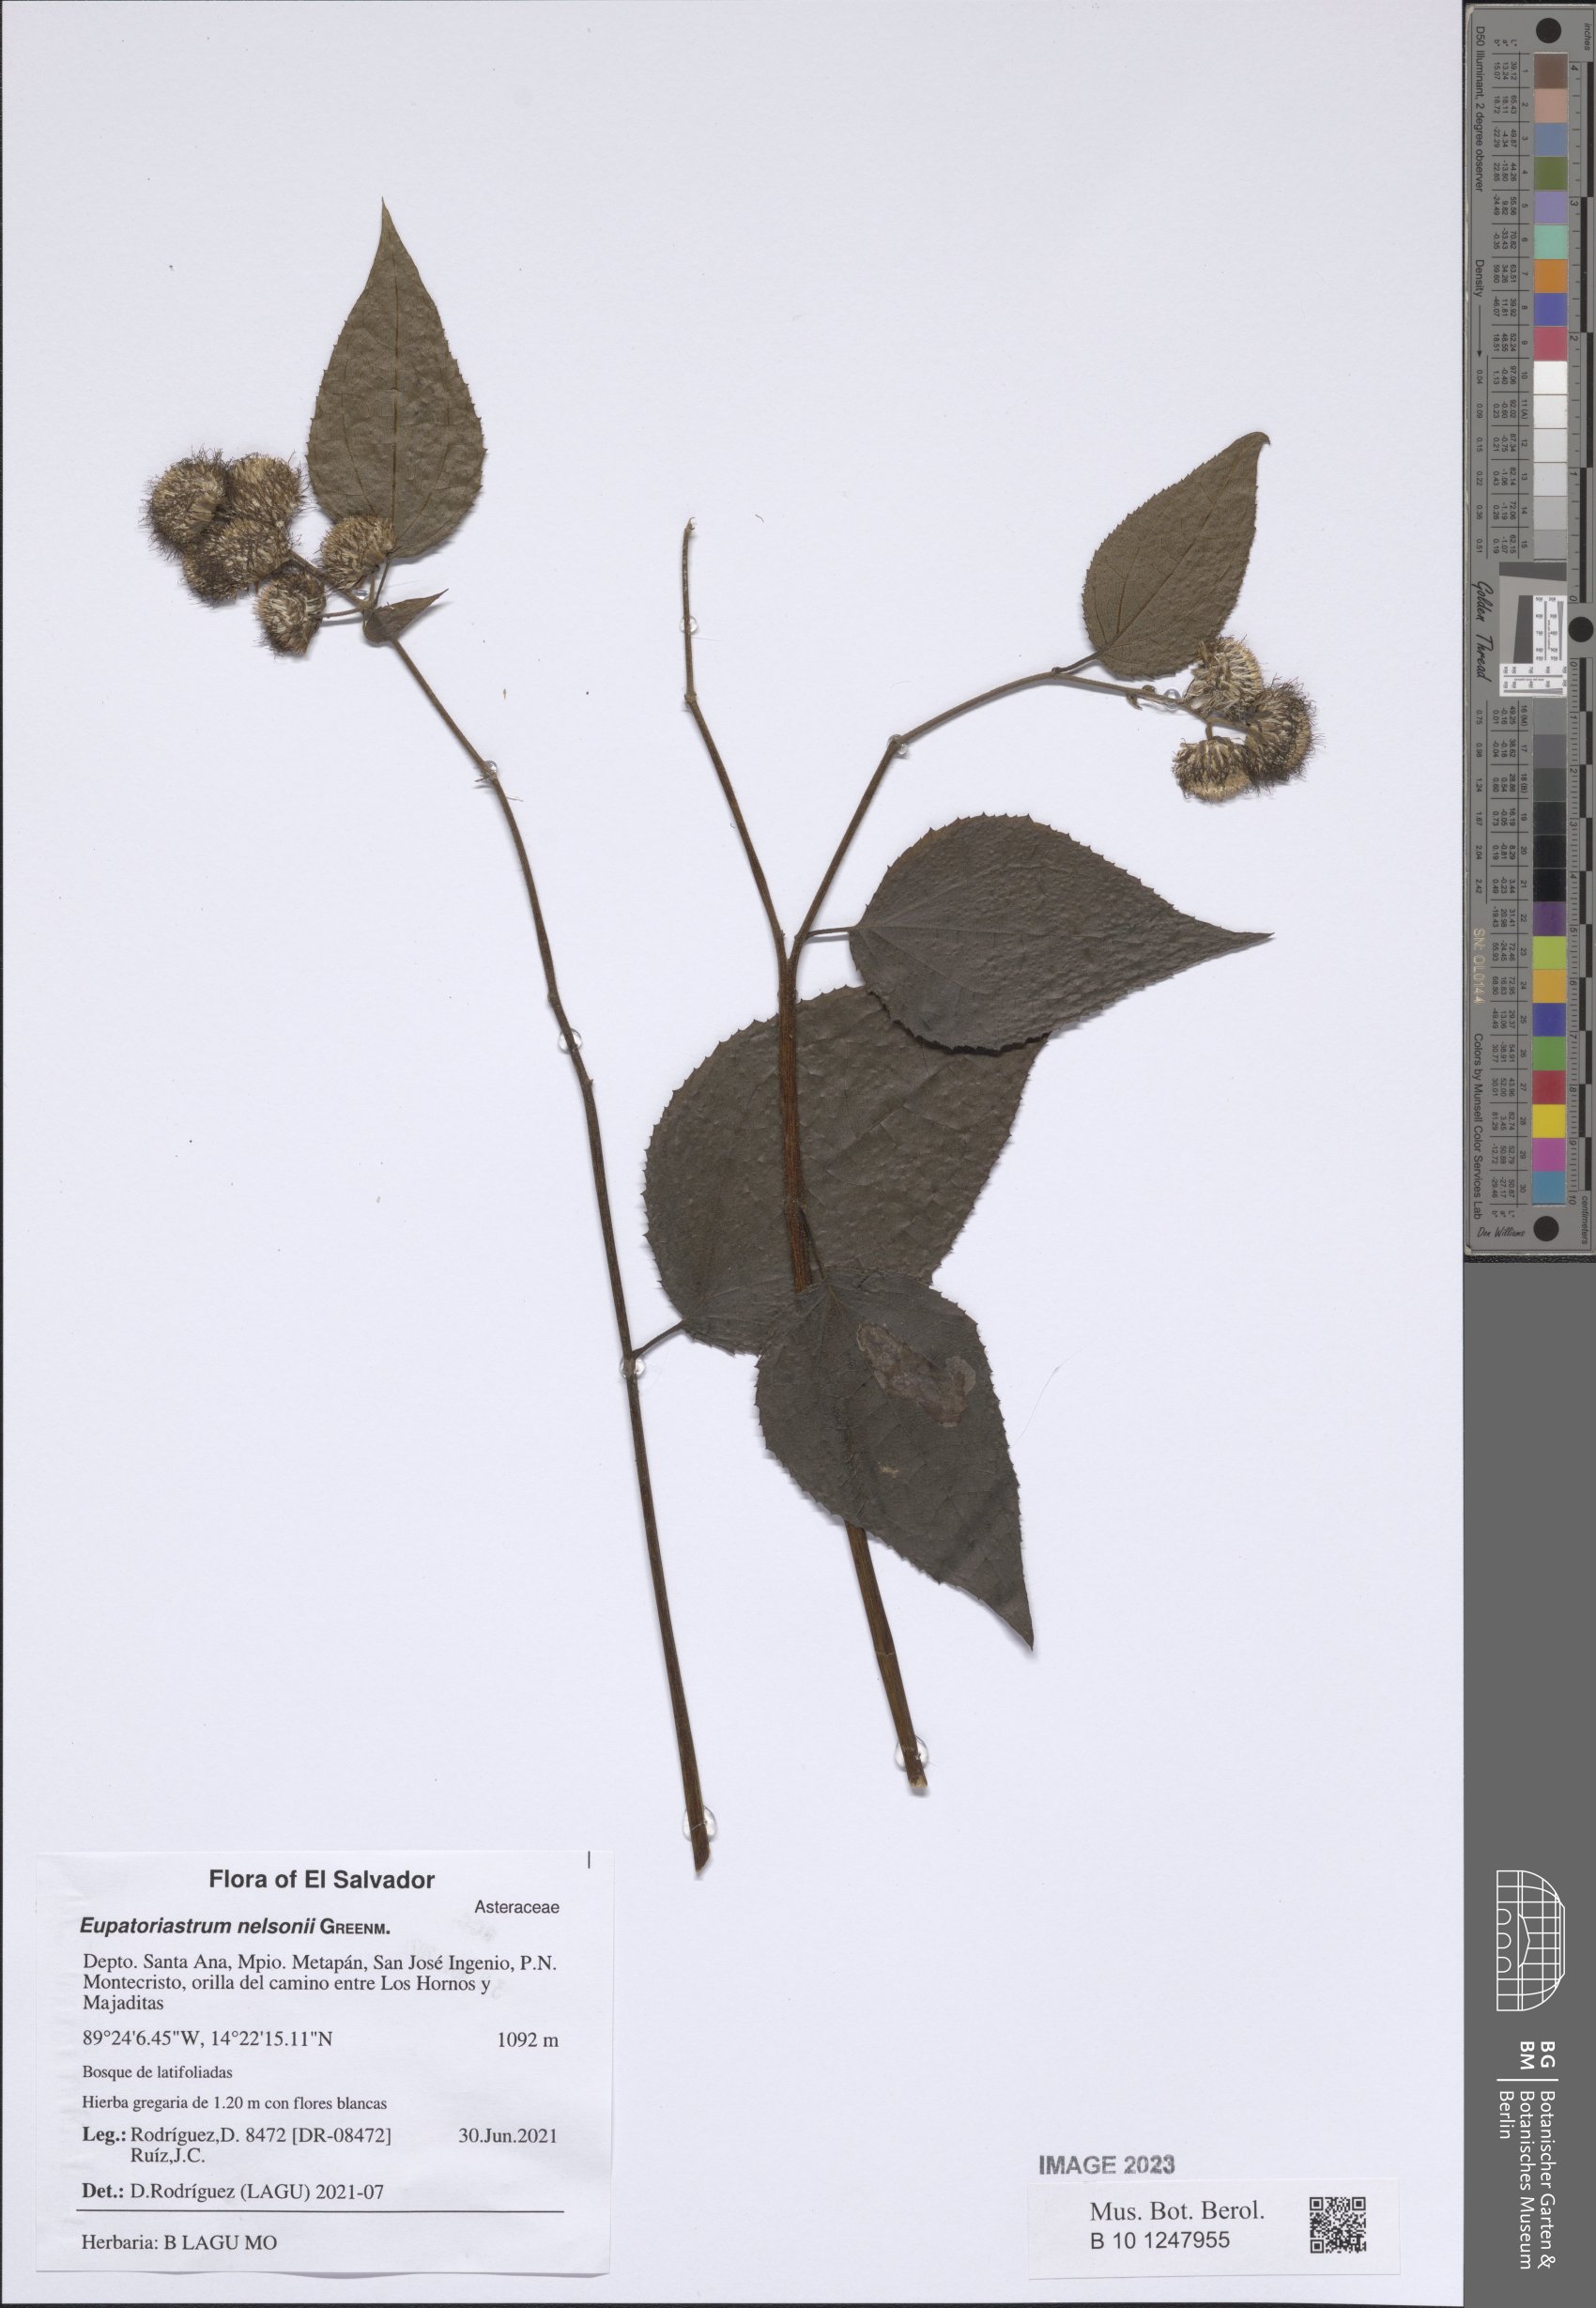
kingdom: Plantae
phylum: Tracheophyta
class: Magnoliopsida
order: Asterales
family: Asteraceae
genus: Eupatoriastrum
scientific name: Eupatoriastrum nelsonii
